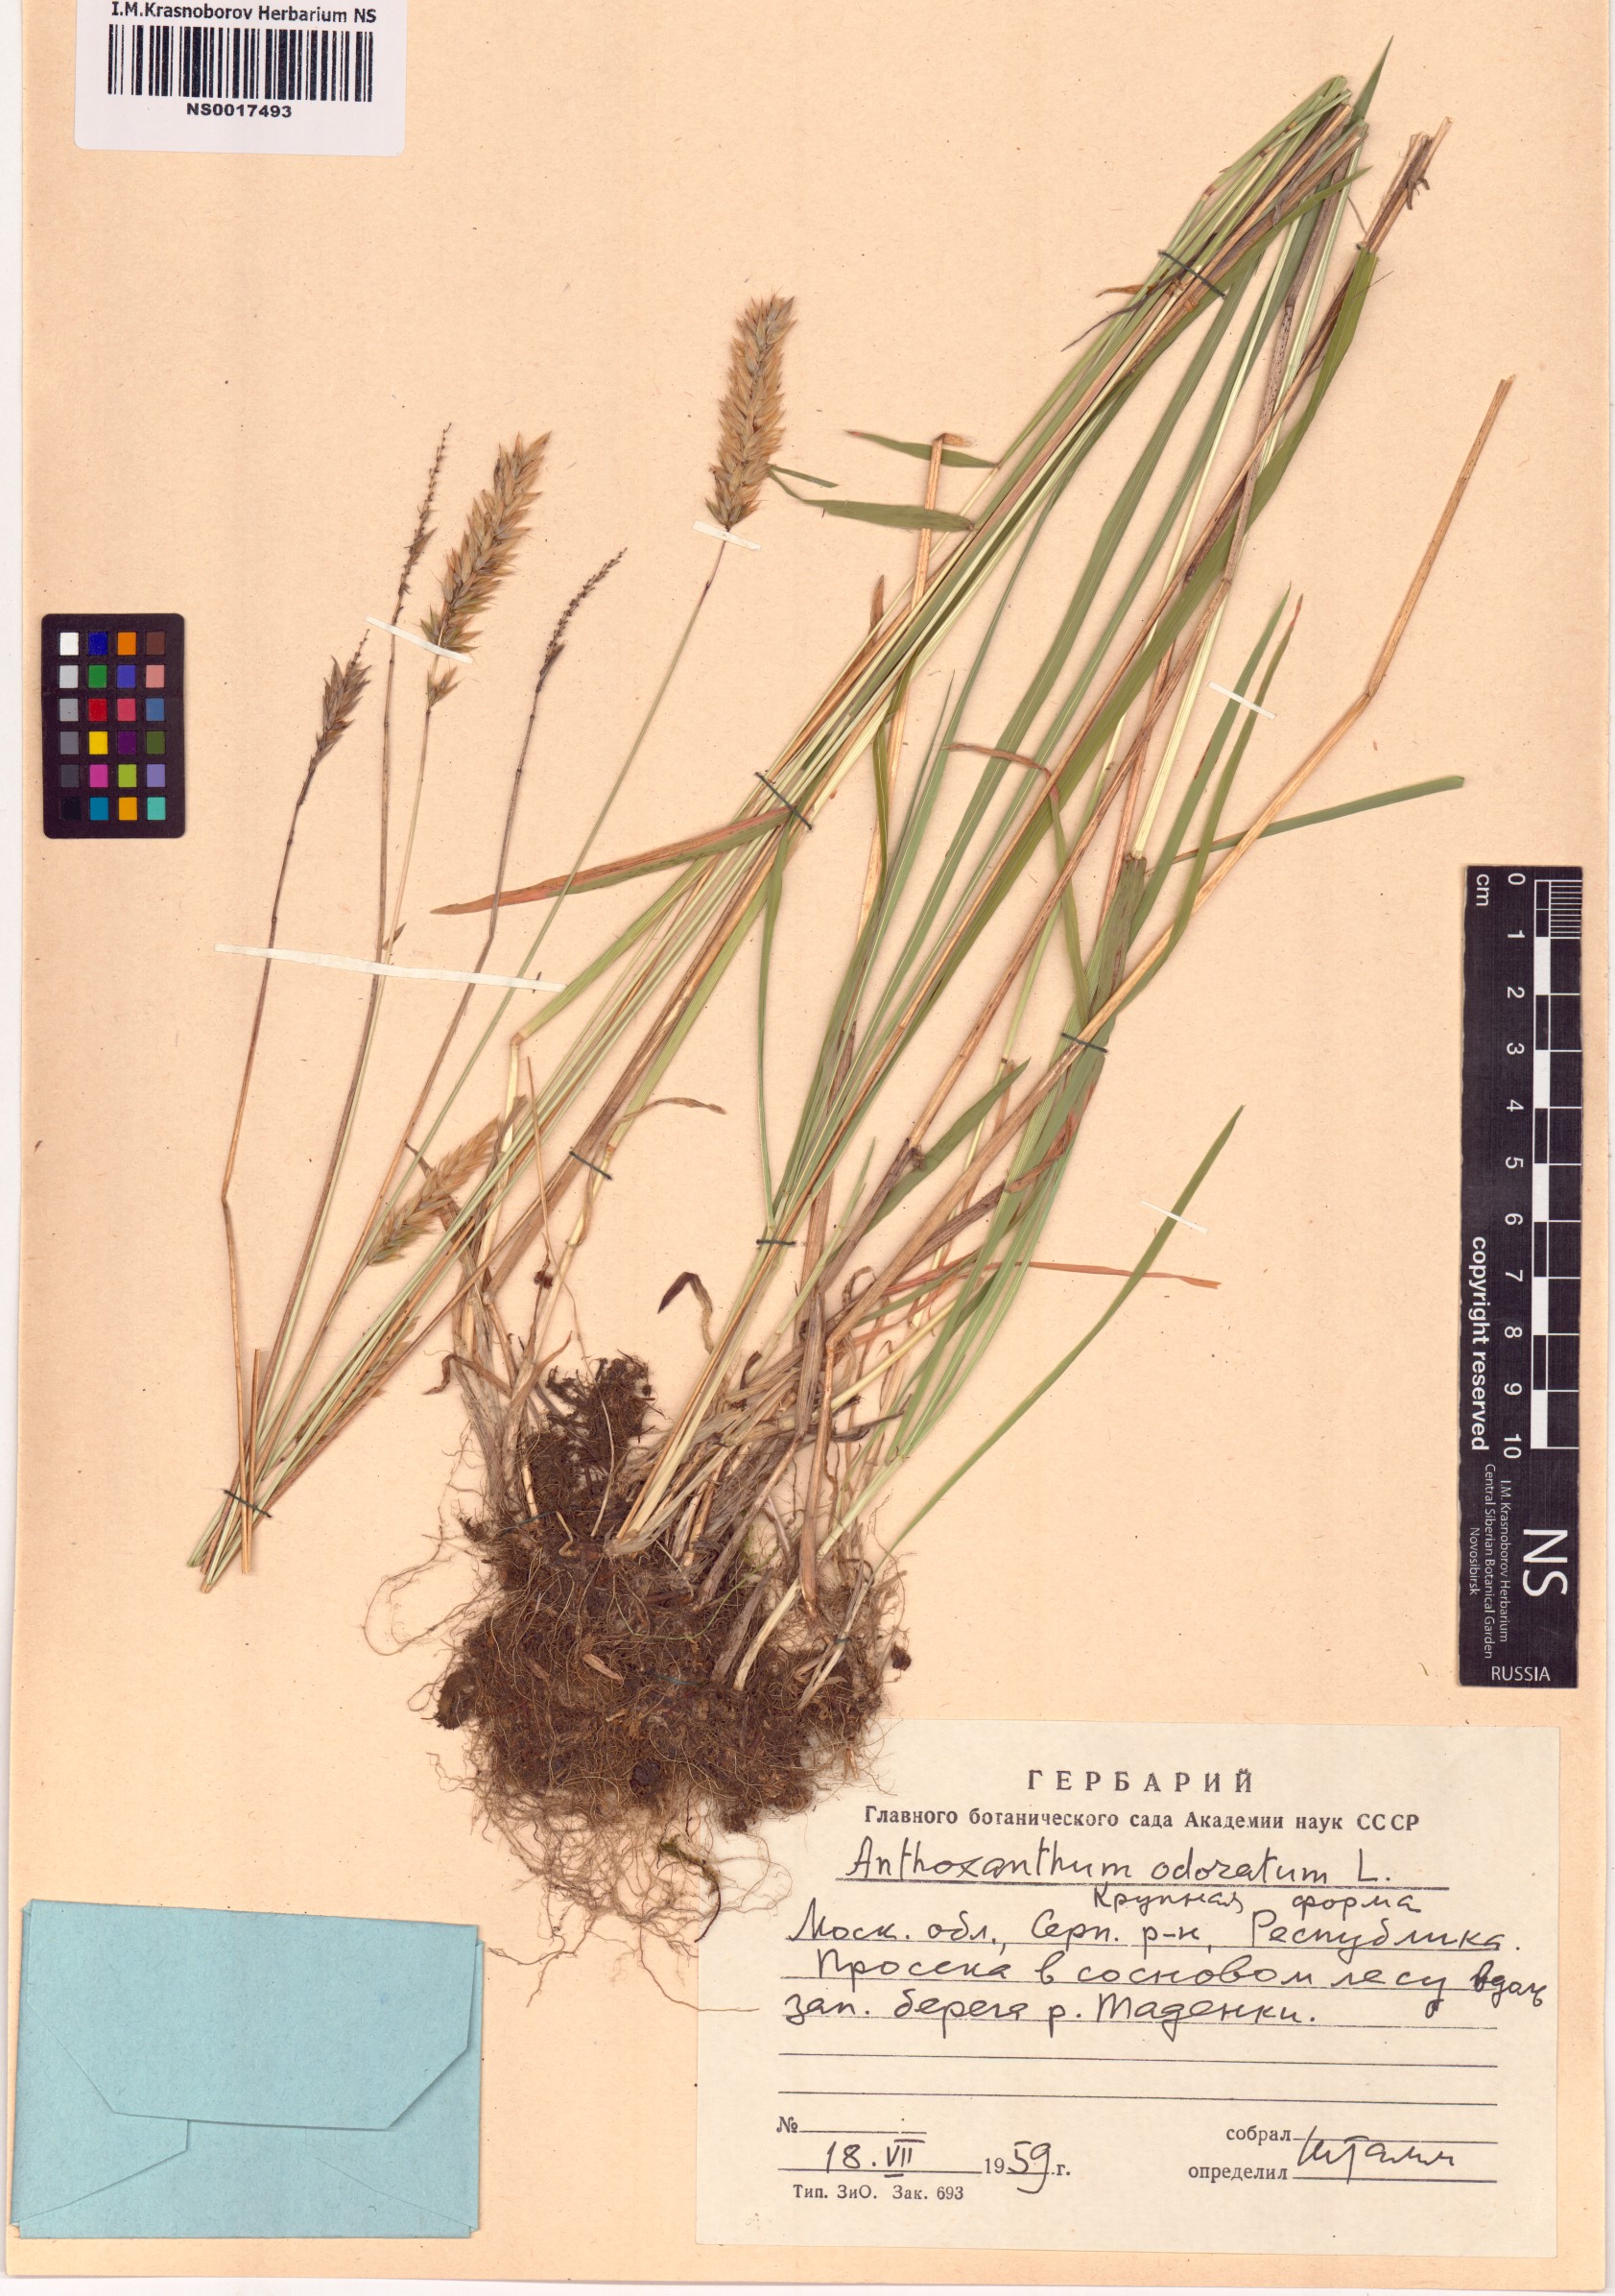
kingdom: Plantae
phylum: Tracheophyta
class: Liliopsida
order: Poales
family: Poaceae
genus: Anthoxanthum
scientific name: Anthoxanthum odoratum
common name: Sweet vernalgrass
